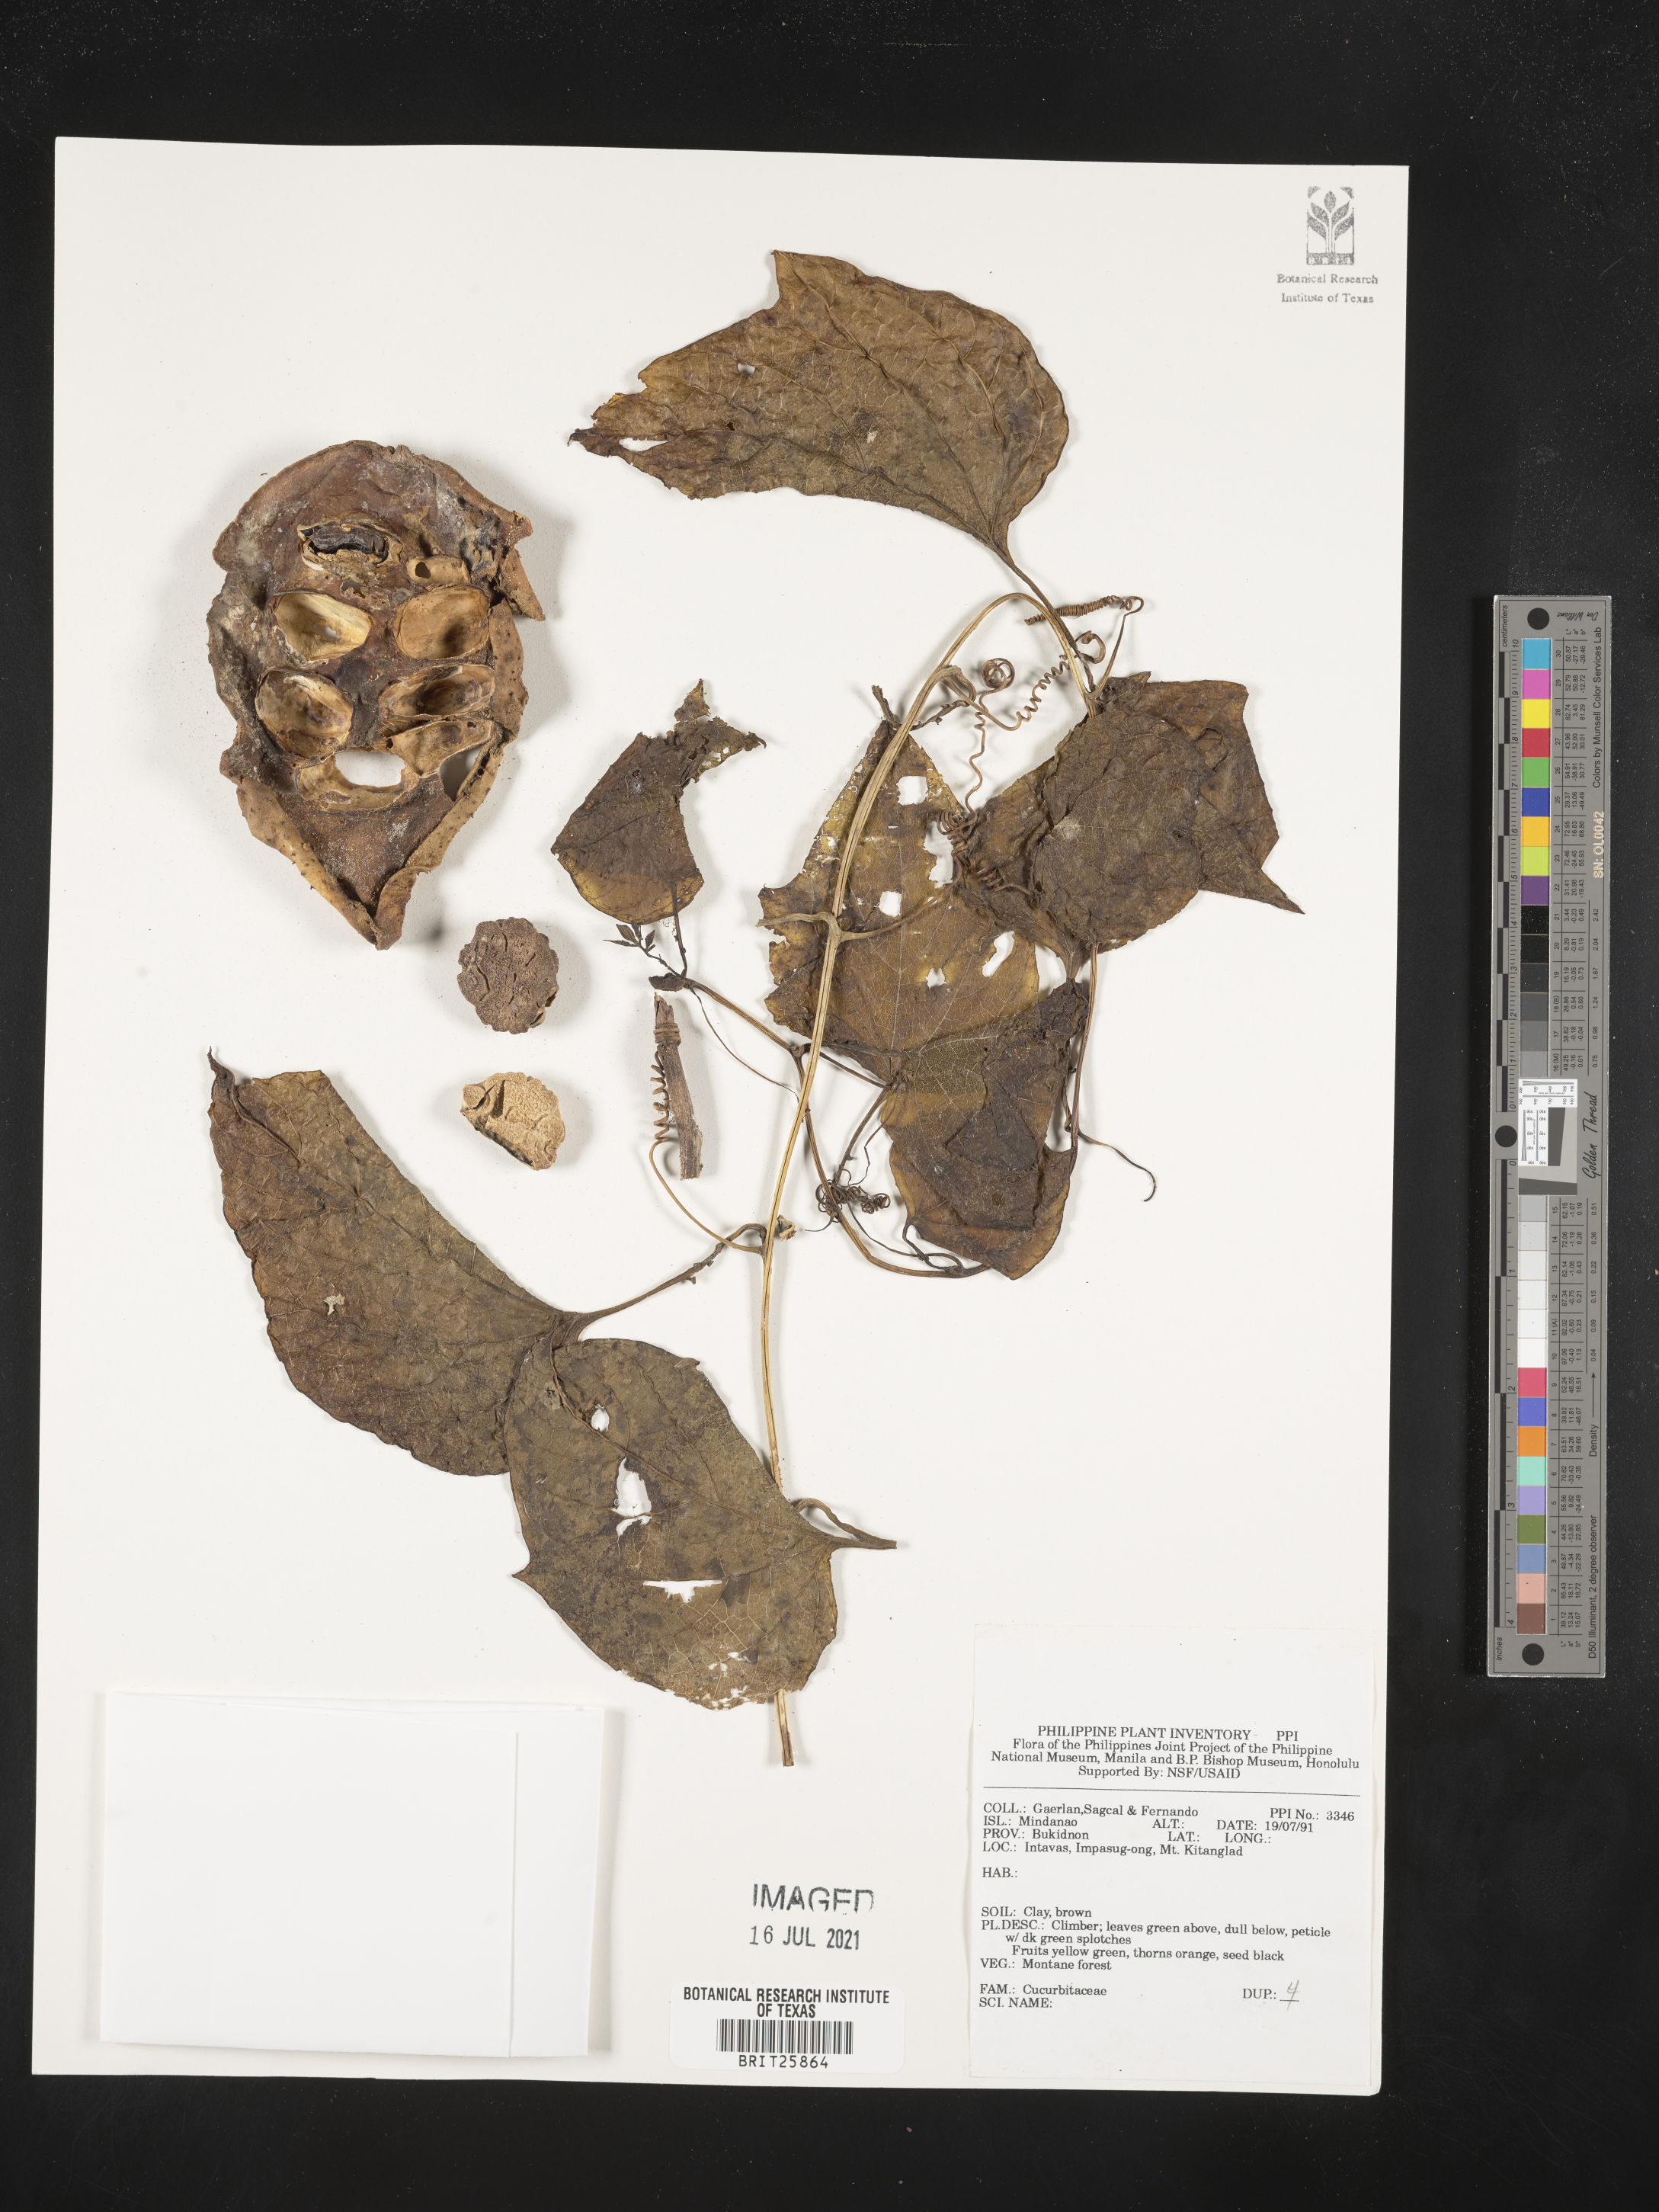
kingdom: Plantae
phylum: Tracheophyta
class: Magnoliopsida
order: Cucurbitales
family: Cucurbitaceae
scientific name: Cucurbitaceae
